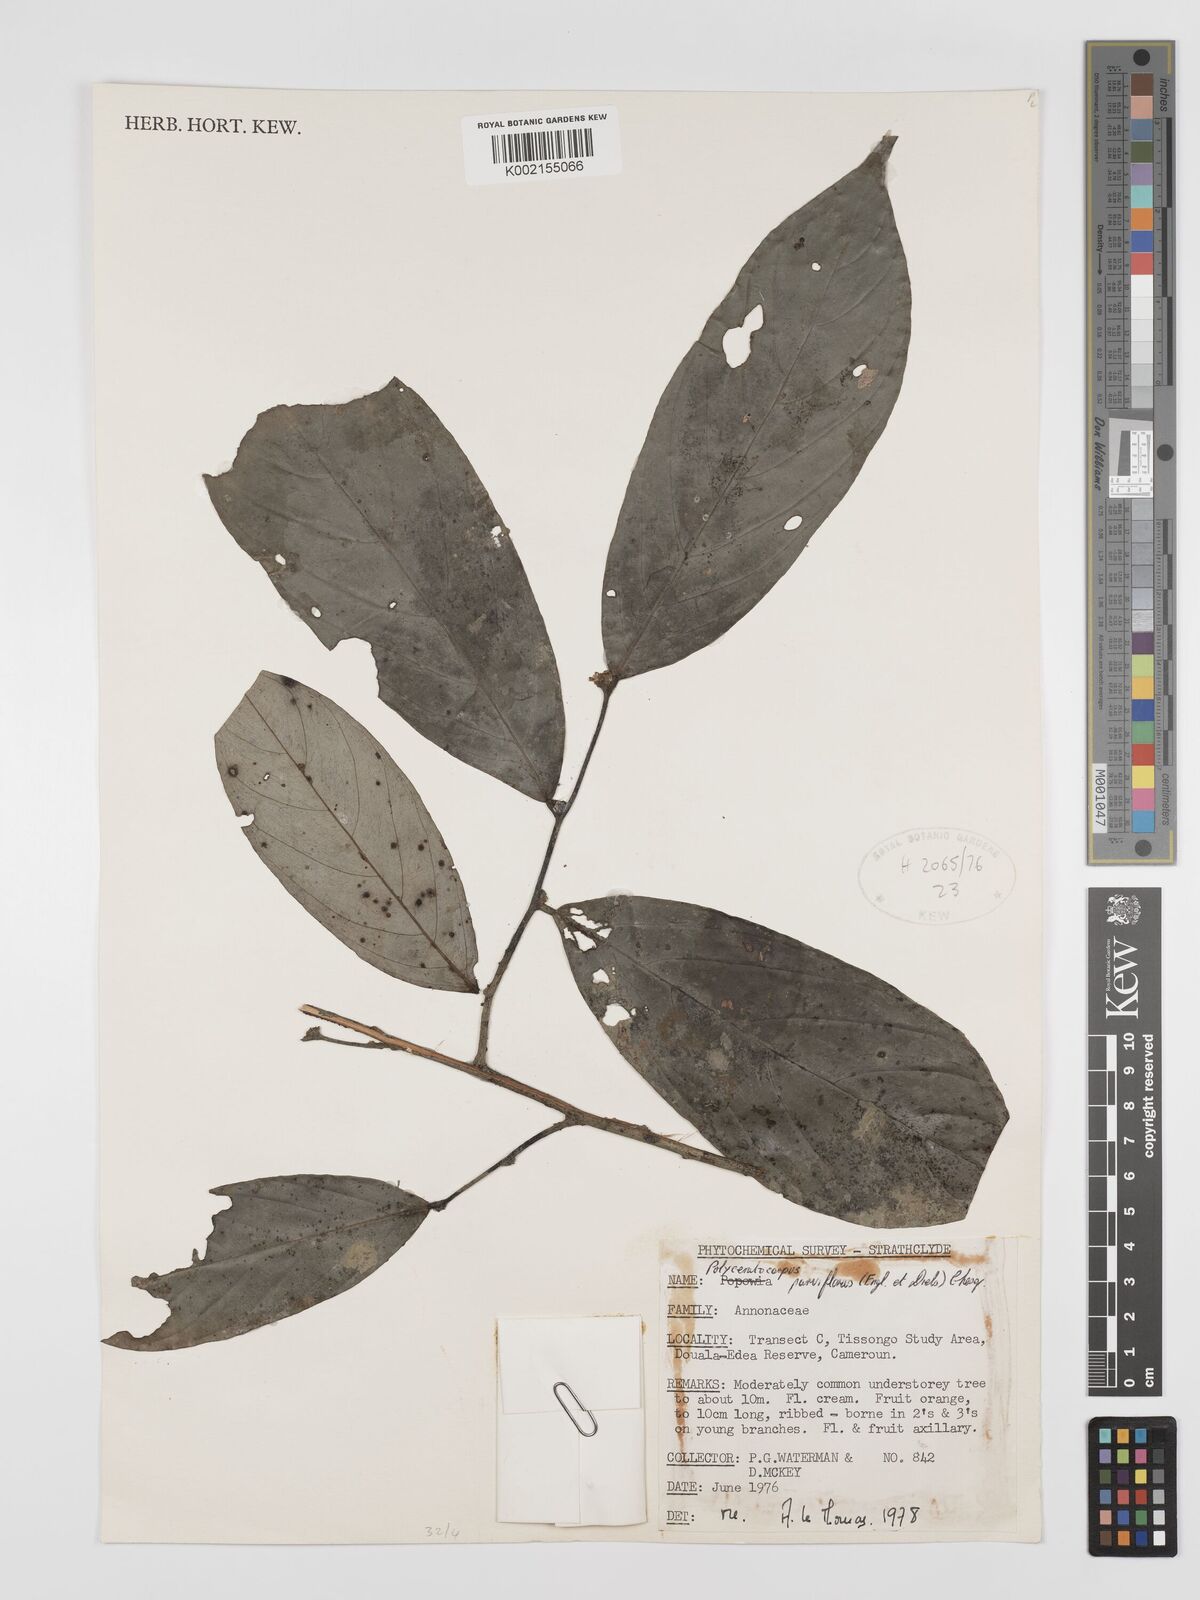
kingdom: Plantae
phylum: Tracheophyta
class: Magnoliopsida
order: Magnoliales
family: Annonaceae
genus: Polyceratocarpus
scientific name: Polyceratocarpus parviflorus
